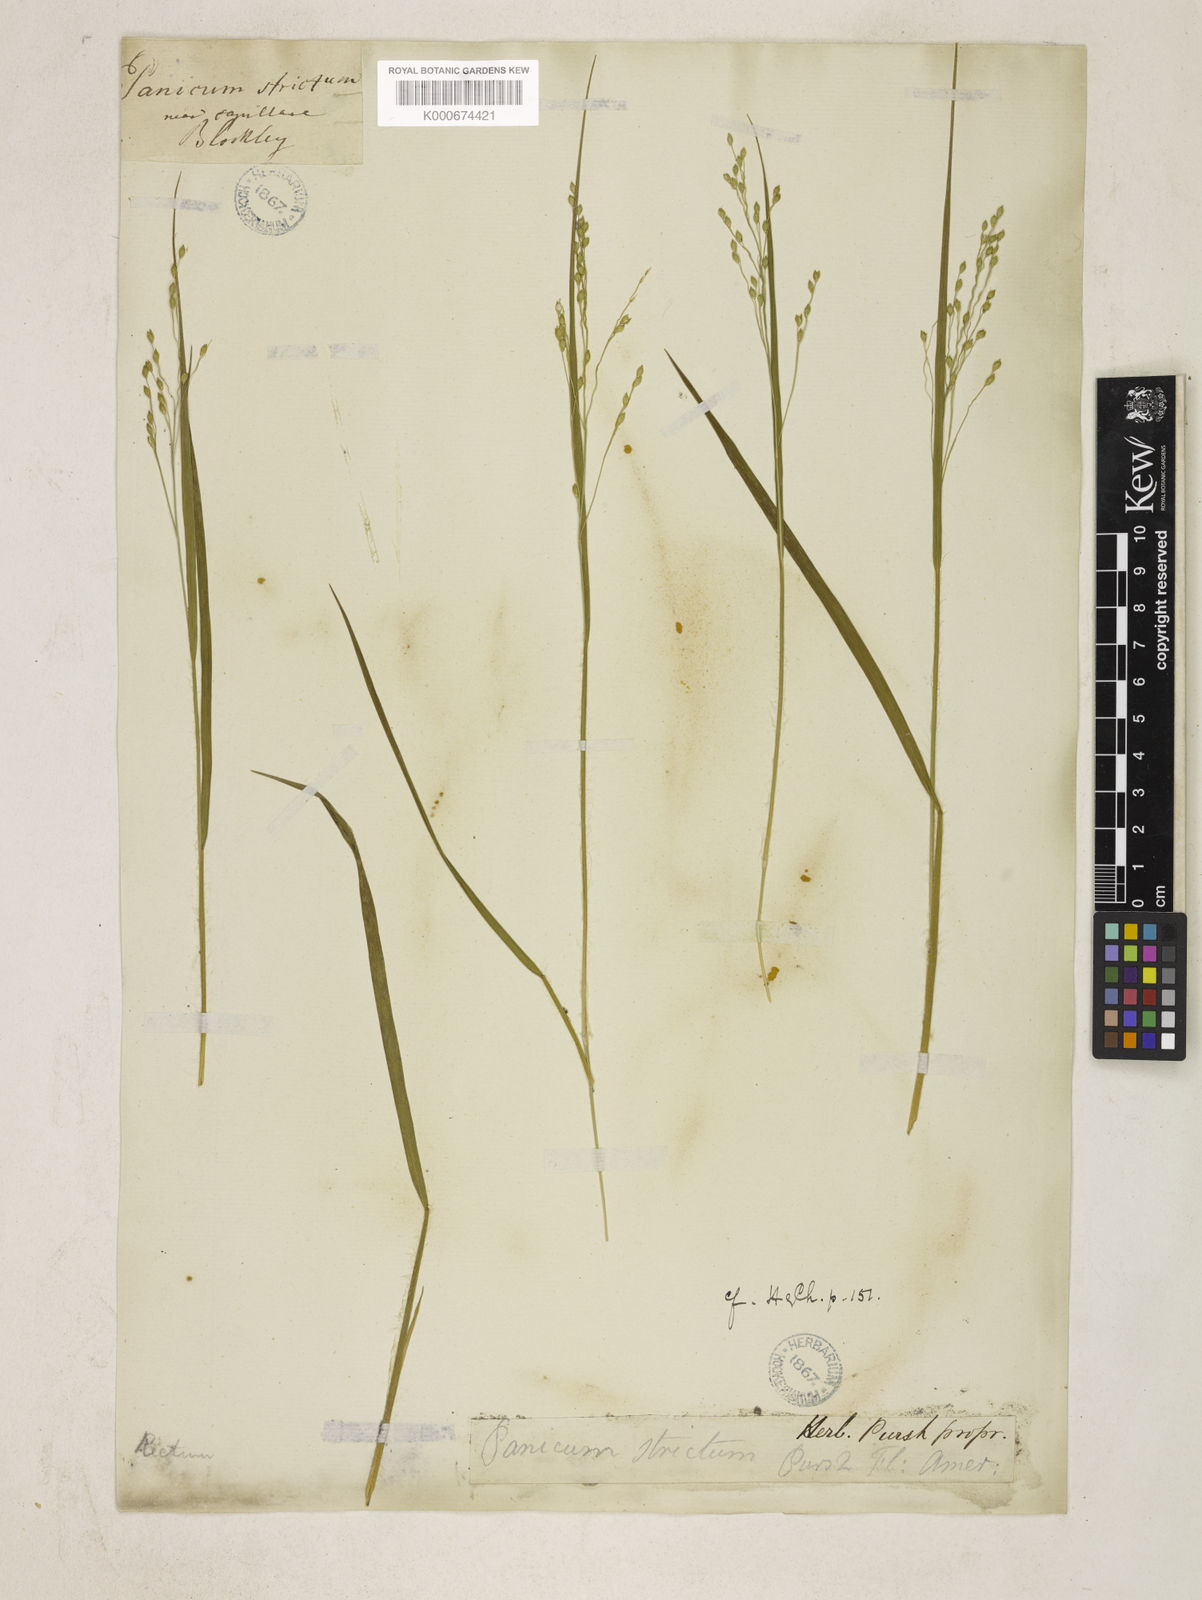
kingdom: Plantae
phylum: Tracheophyta
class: Liliopsida
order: Poales
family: Poaceae
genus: Dichanthelium
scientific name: Dichanthelium depauperatum
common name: Depauperate panicgrass
